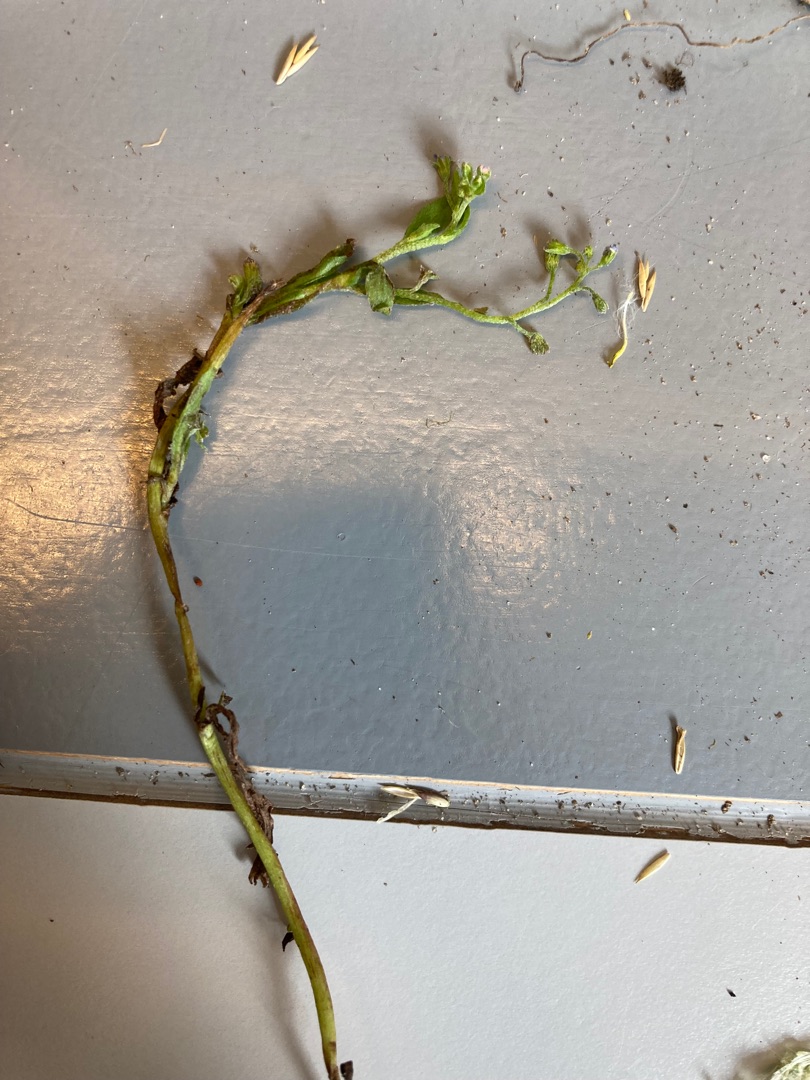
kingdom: Plantae
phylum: Tracheophyta
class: Magnoliopsida
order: Boraginales
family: Boraginaceae
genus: Myosotis
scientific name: Myosotis laxa
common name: Sump-forglemmigej
